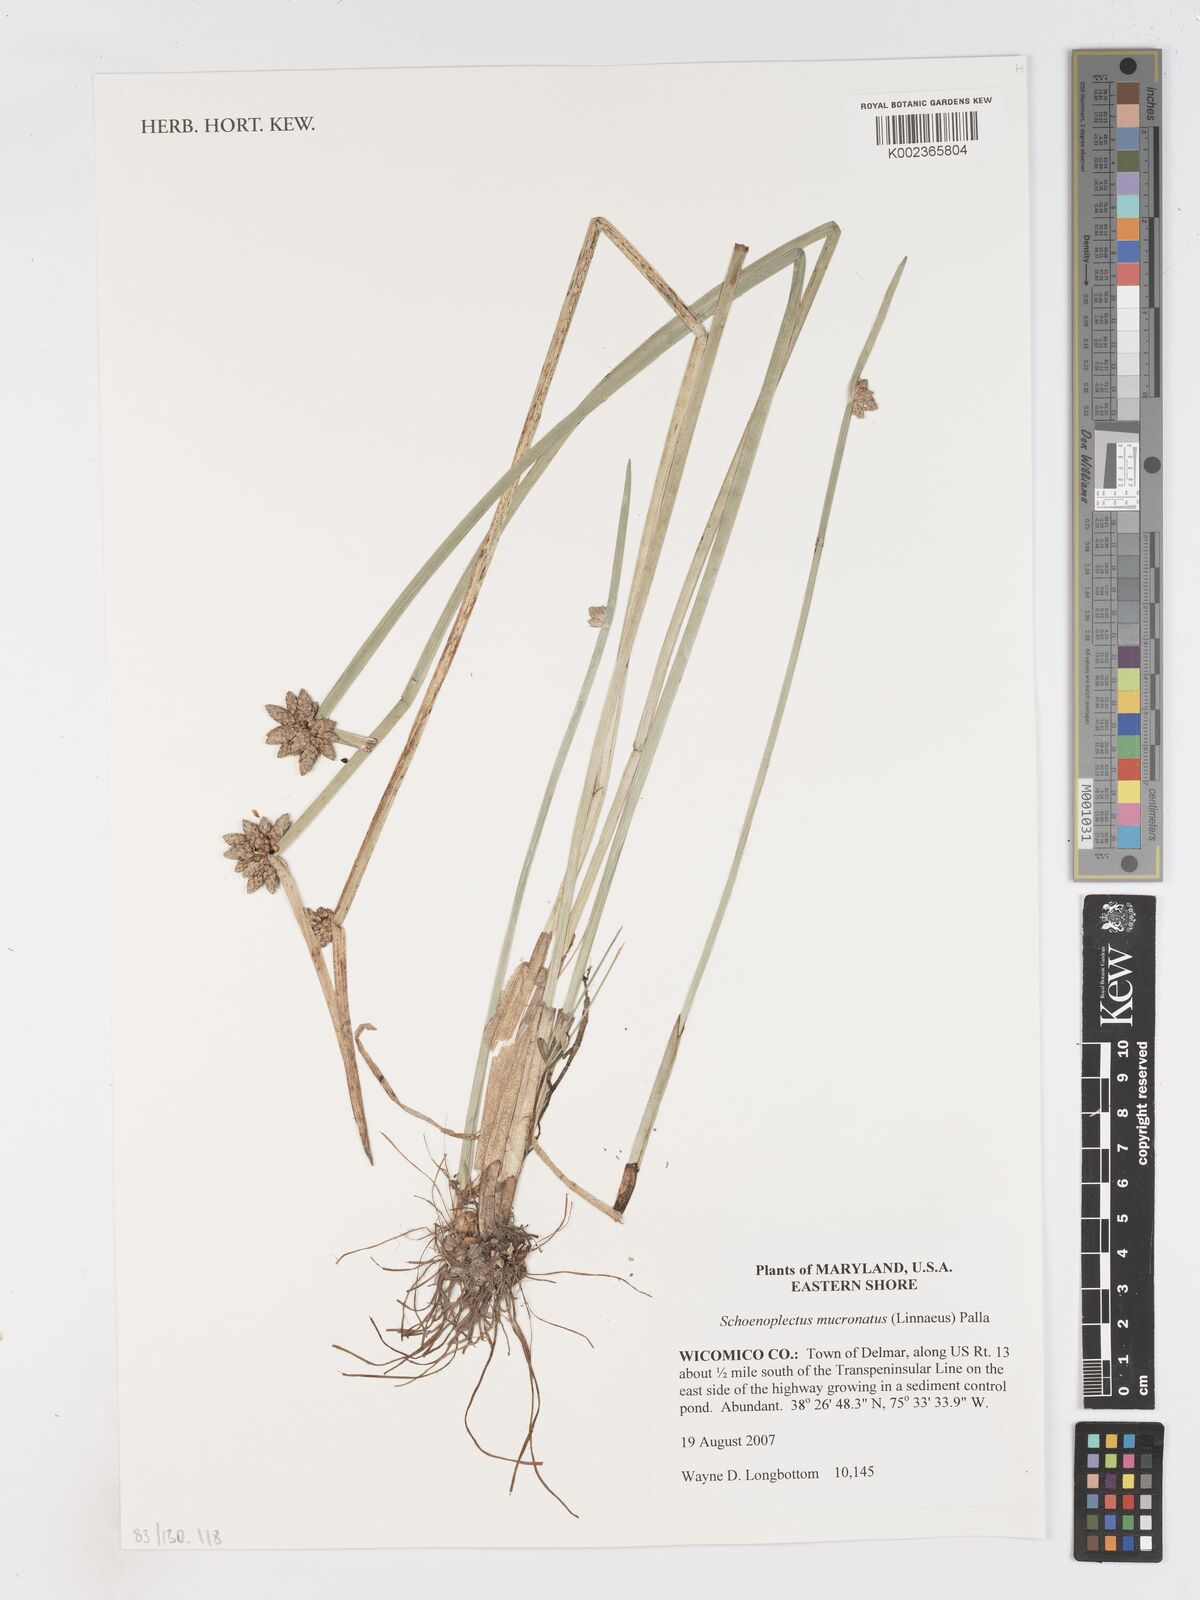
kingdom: Plantae
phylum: Tracheophyta
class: Liliopsida
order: Poales
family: Cyperaceae
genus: Schoenoplectiella
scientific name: Schoenoplectiella mucronata
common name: Bog bulrush
